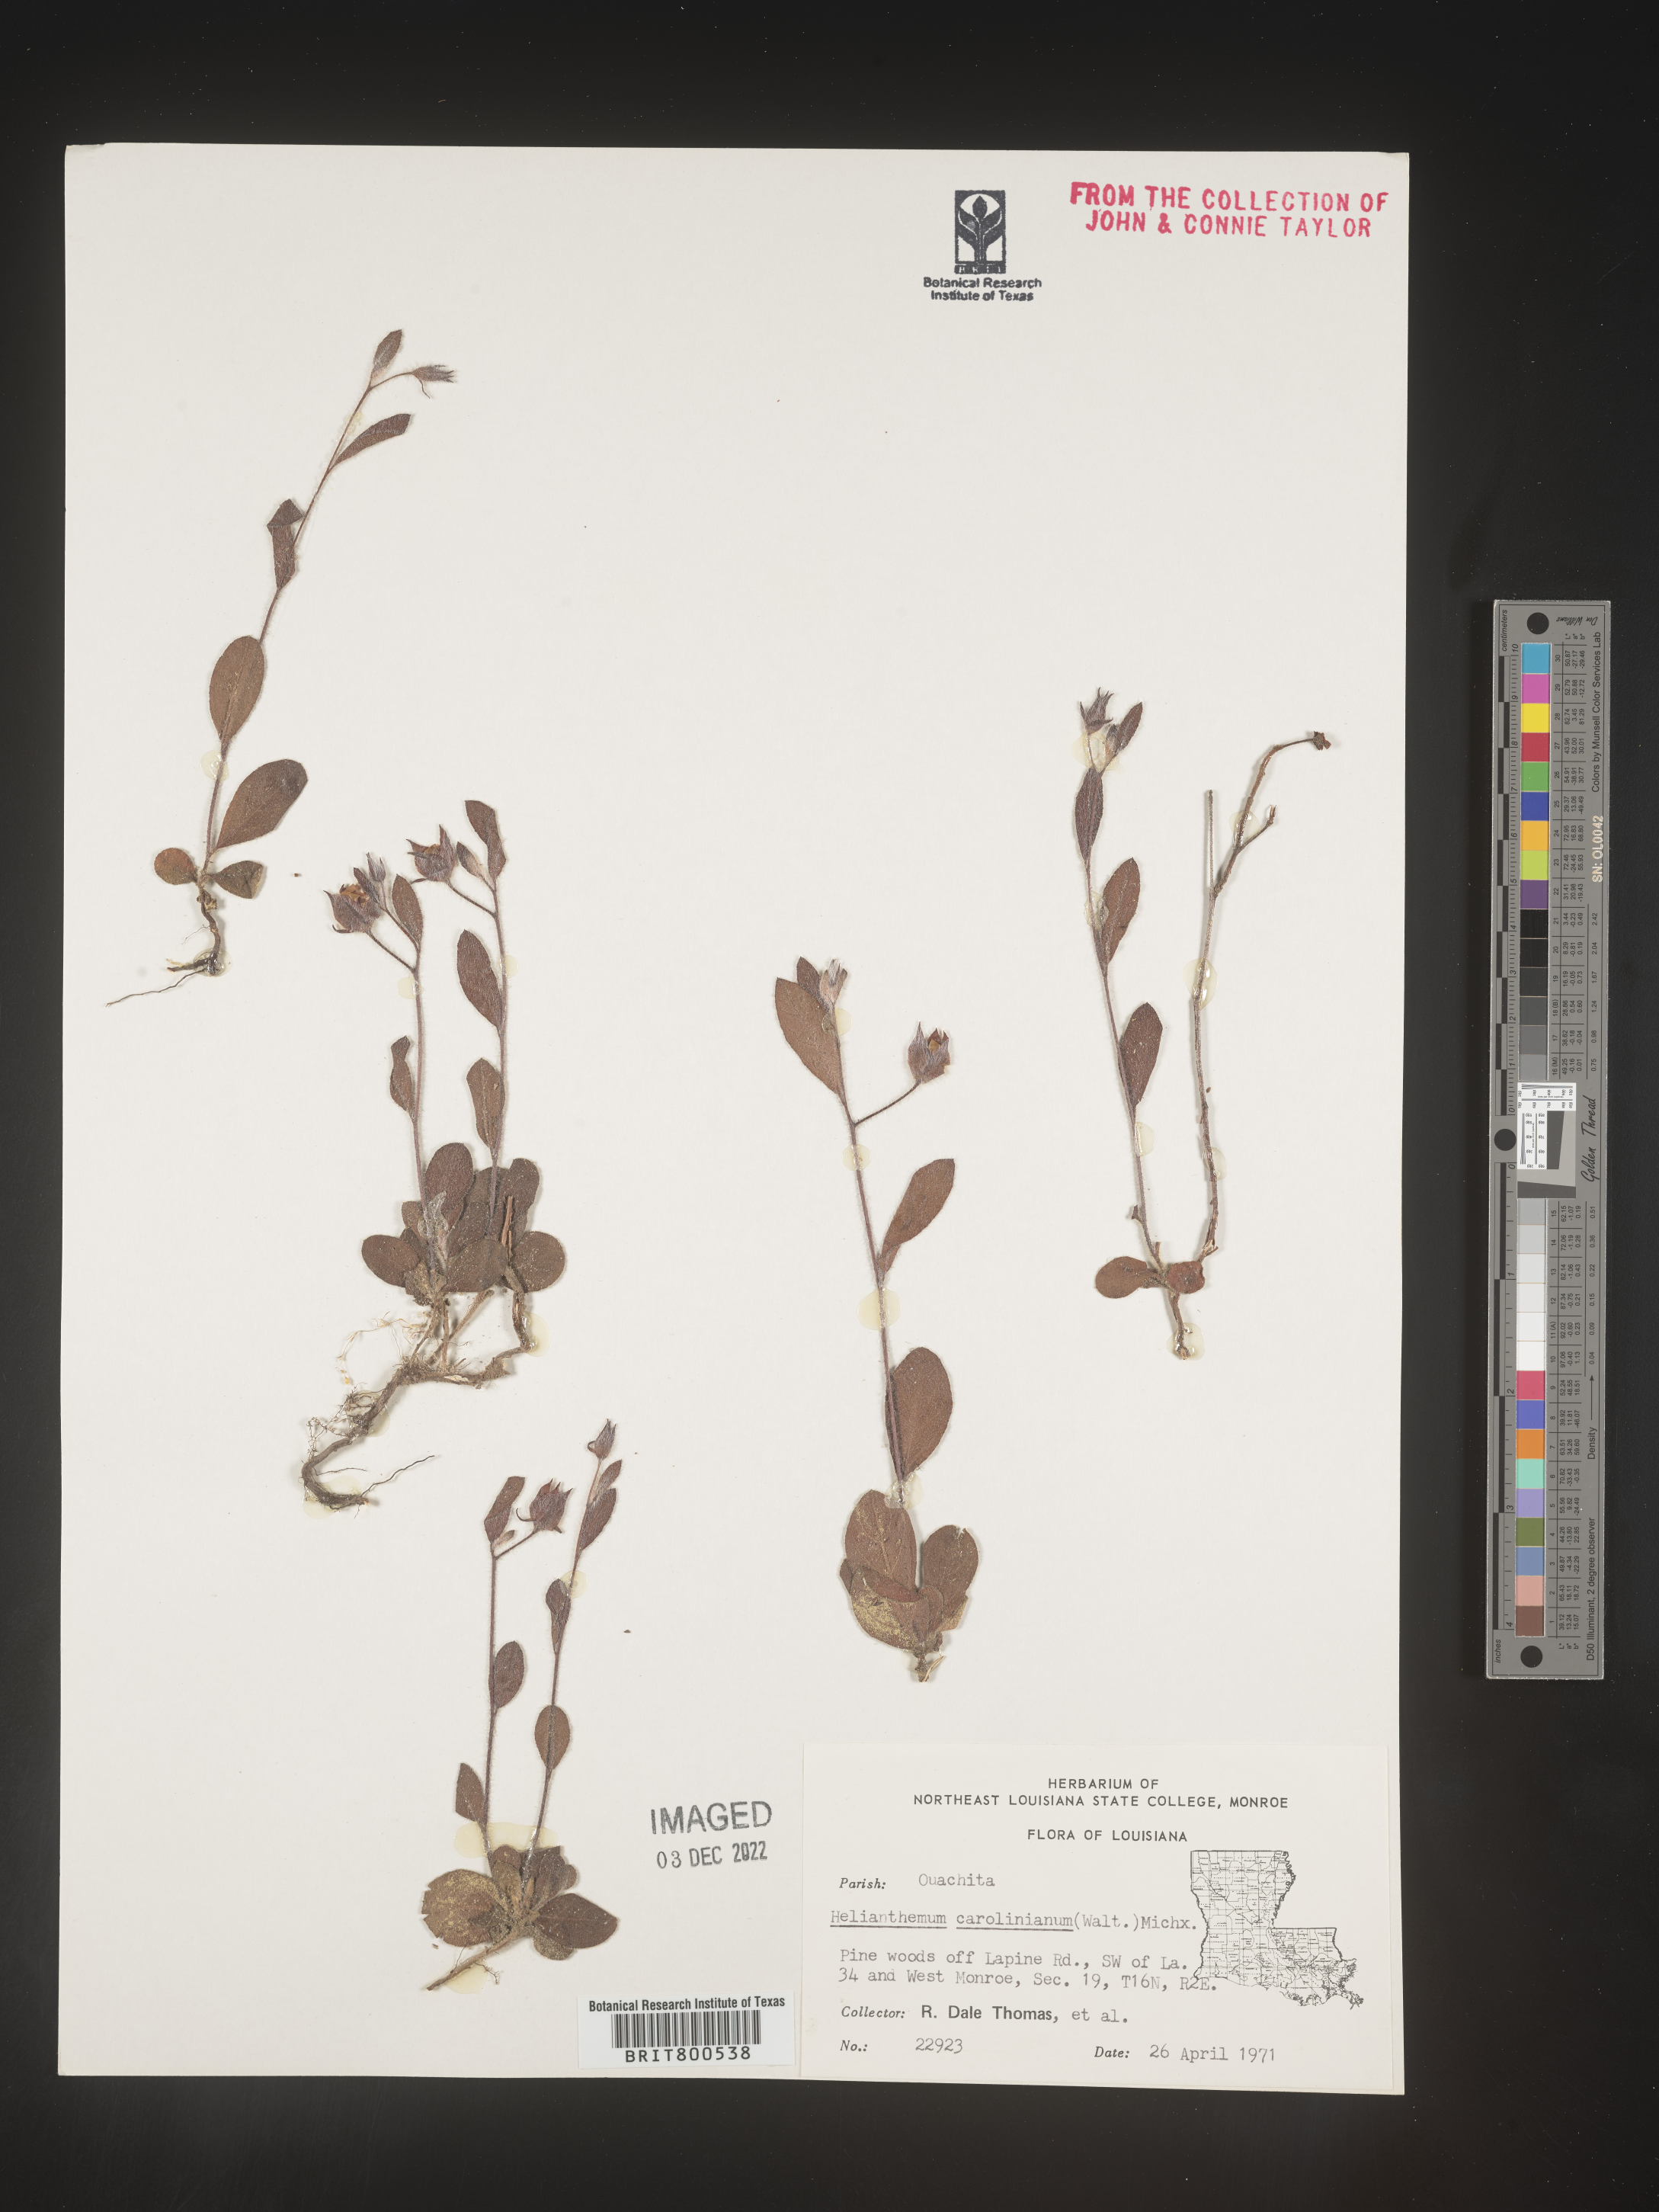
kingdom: Plantae
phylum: Tracheophyta
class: Magnoliopsida
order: Malvales
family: Cistaceae
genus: Crocanthemum
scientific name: Crocanthemum carolinianum
